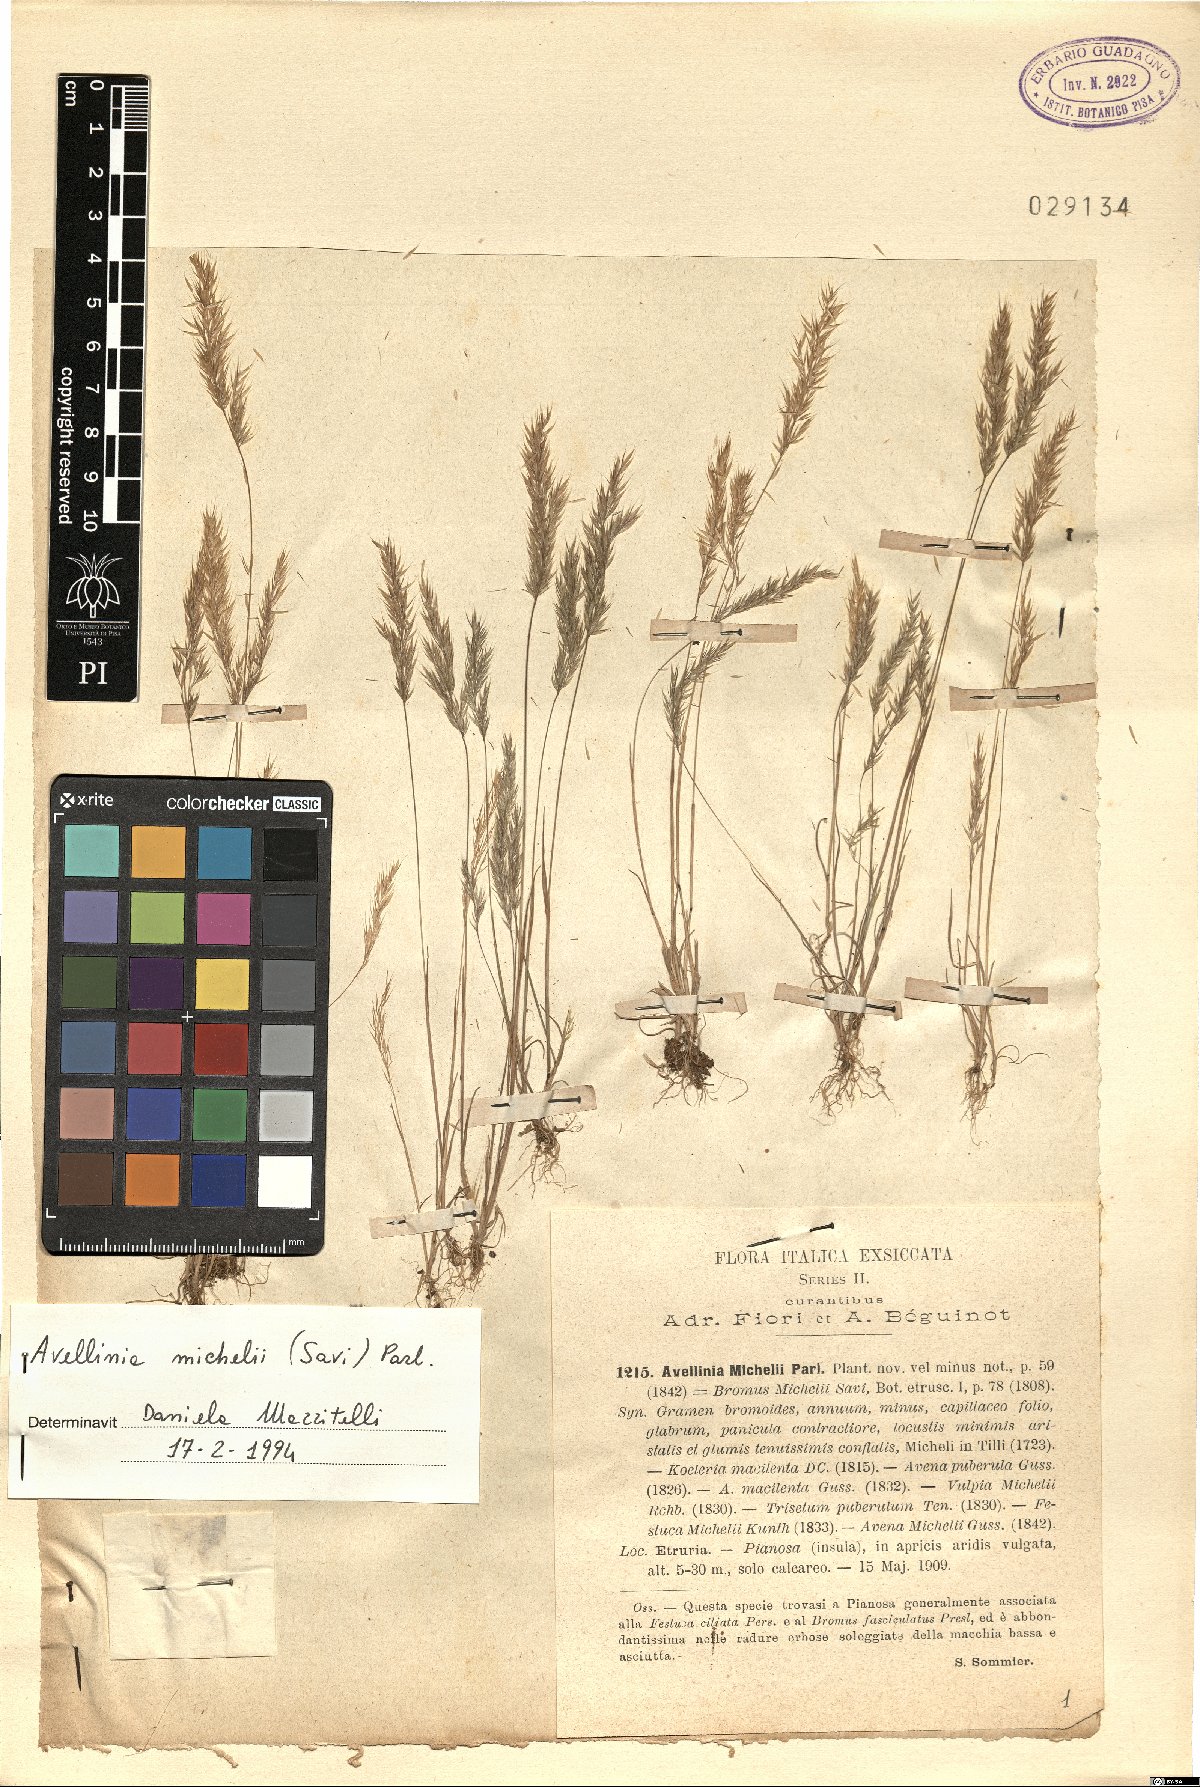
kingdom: Plantae
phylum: Tracheophyta
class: Liliopsida
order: Poales
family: Poaceae
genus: Avellinia
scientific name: Avellinia festucoides
